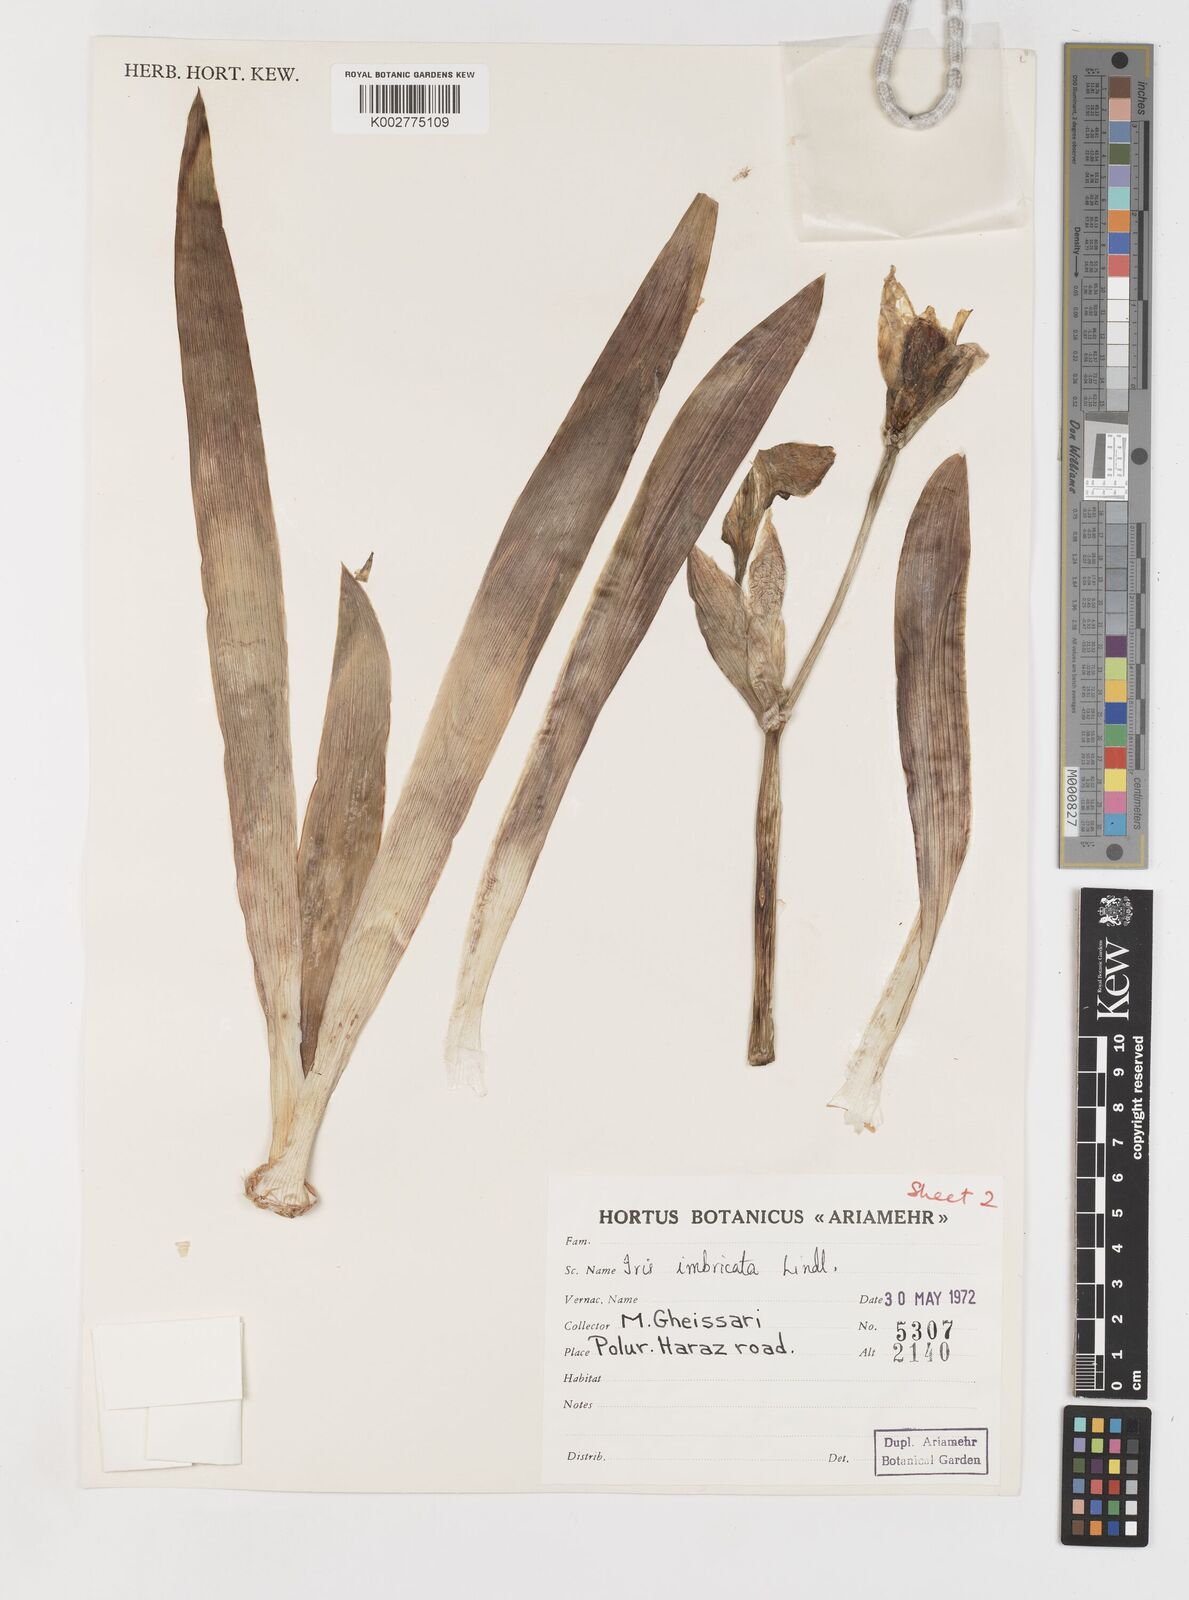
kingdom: Plantae
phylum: Tracheophyta
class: Liliopsida
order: Asparagales
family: Iridaceae
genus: Iris
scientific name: Iris imbricata
